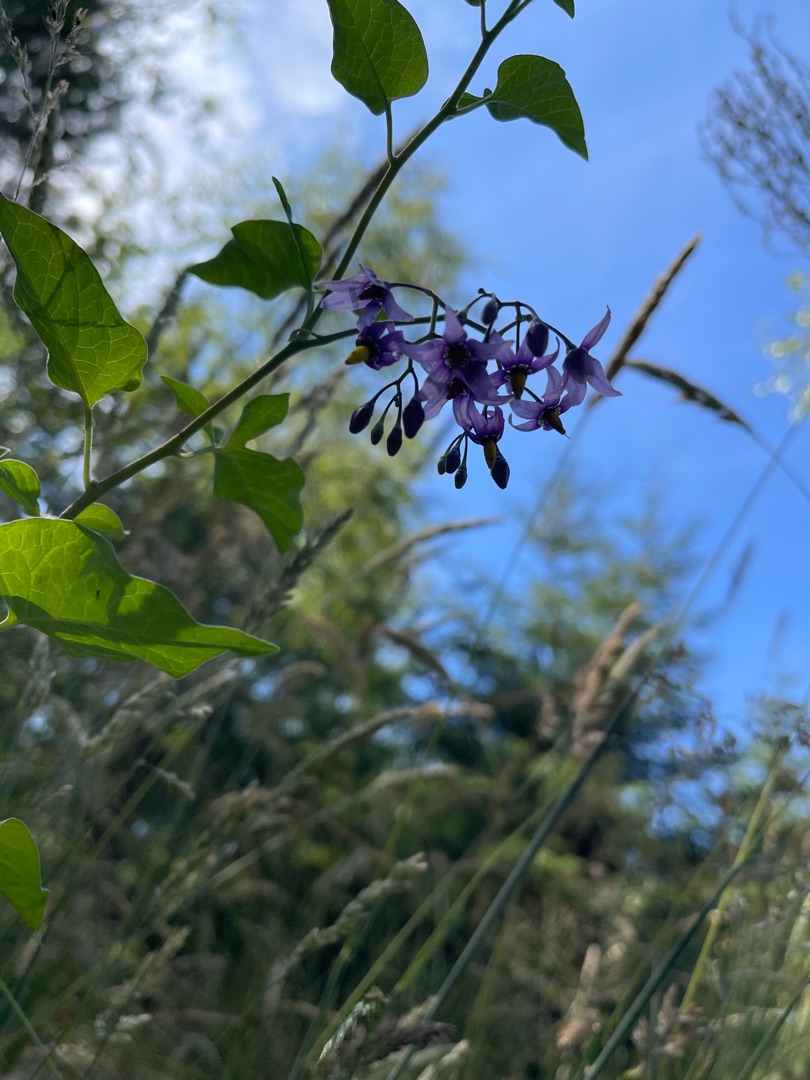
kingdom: Plantae
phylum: Tracheophyta
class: Magnoliopsida
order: Solanales
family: Solanaceae
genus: Solanum
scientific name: Solanum dulcamara
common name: Bittersød natskygge
